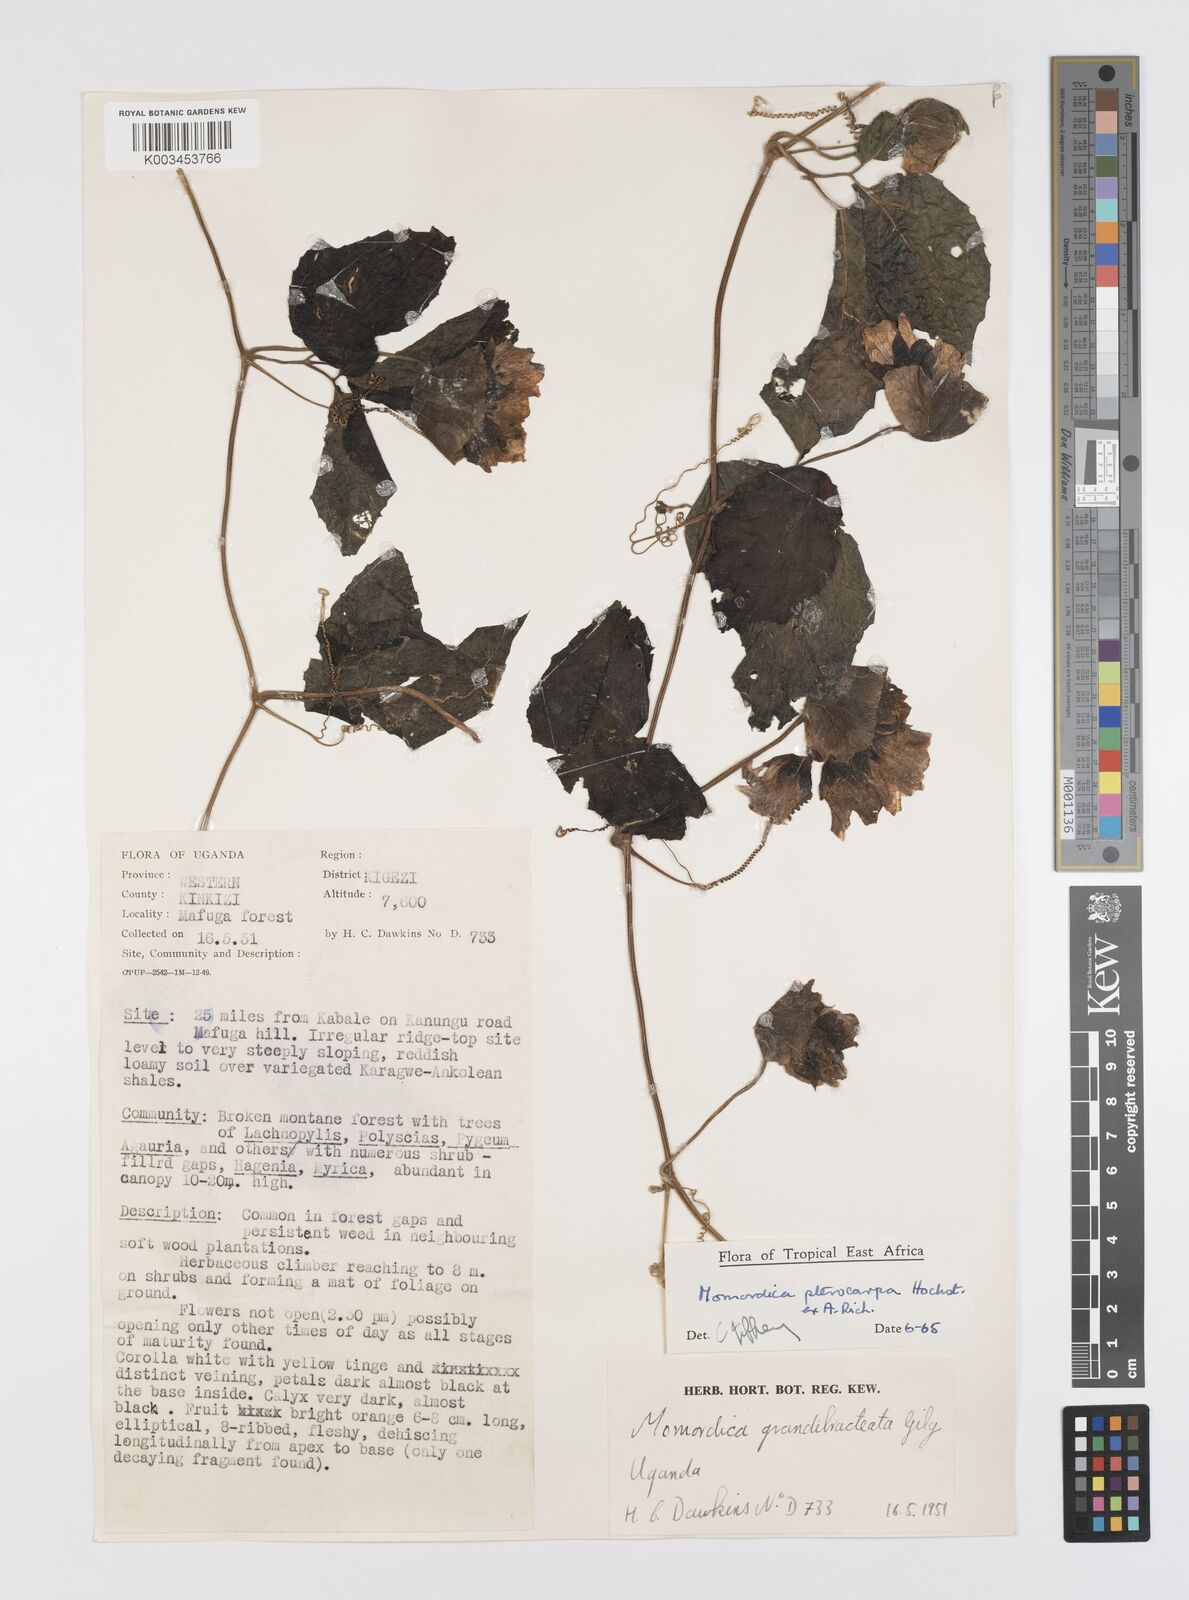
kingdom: Plantae
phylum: Tracheophyta
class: Magnoliopsida
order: Cucurbitales
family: Cucurbitaceae
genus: Momordica
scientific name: Momordica pterocarpa
